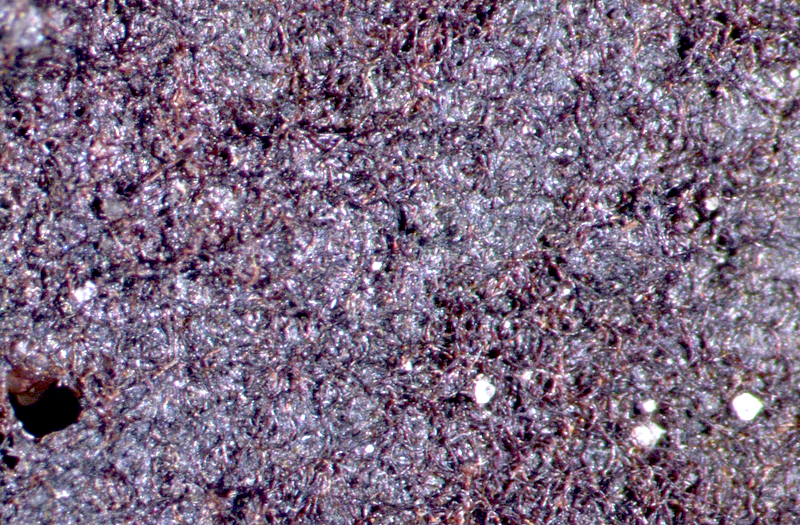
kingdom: Bacteria
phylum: Cyanobacteria
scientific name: Cyanobacteria
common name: Cyanobacteria
